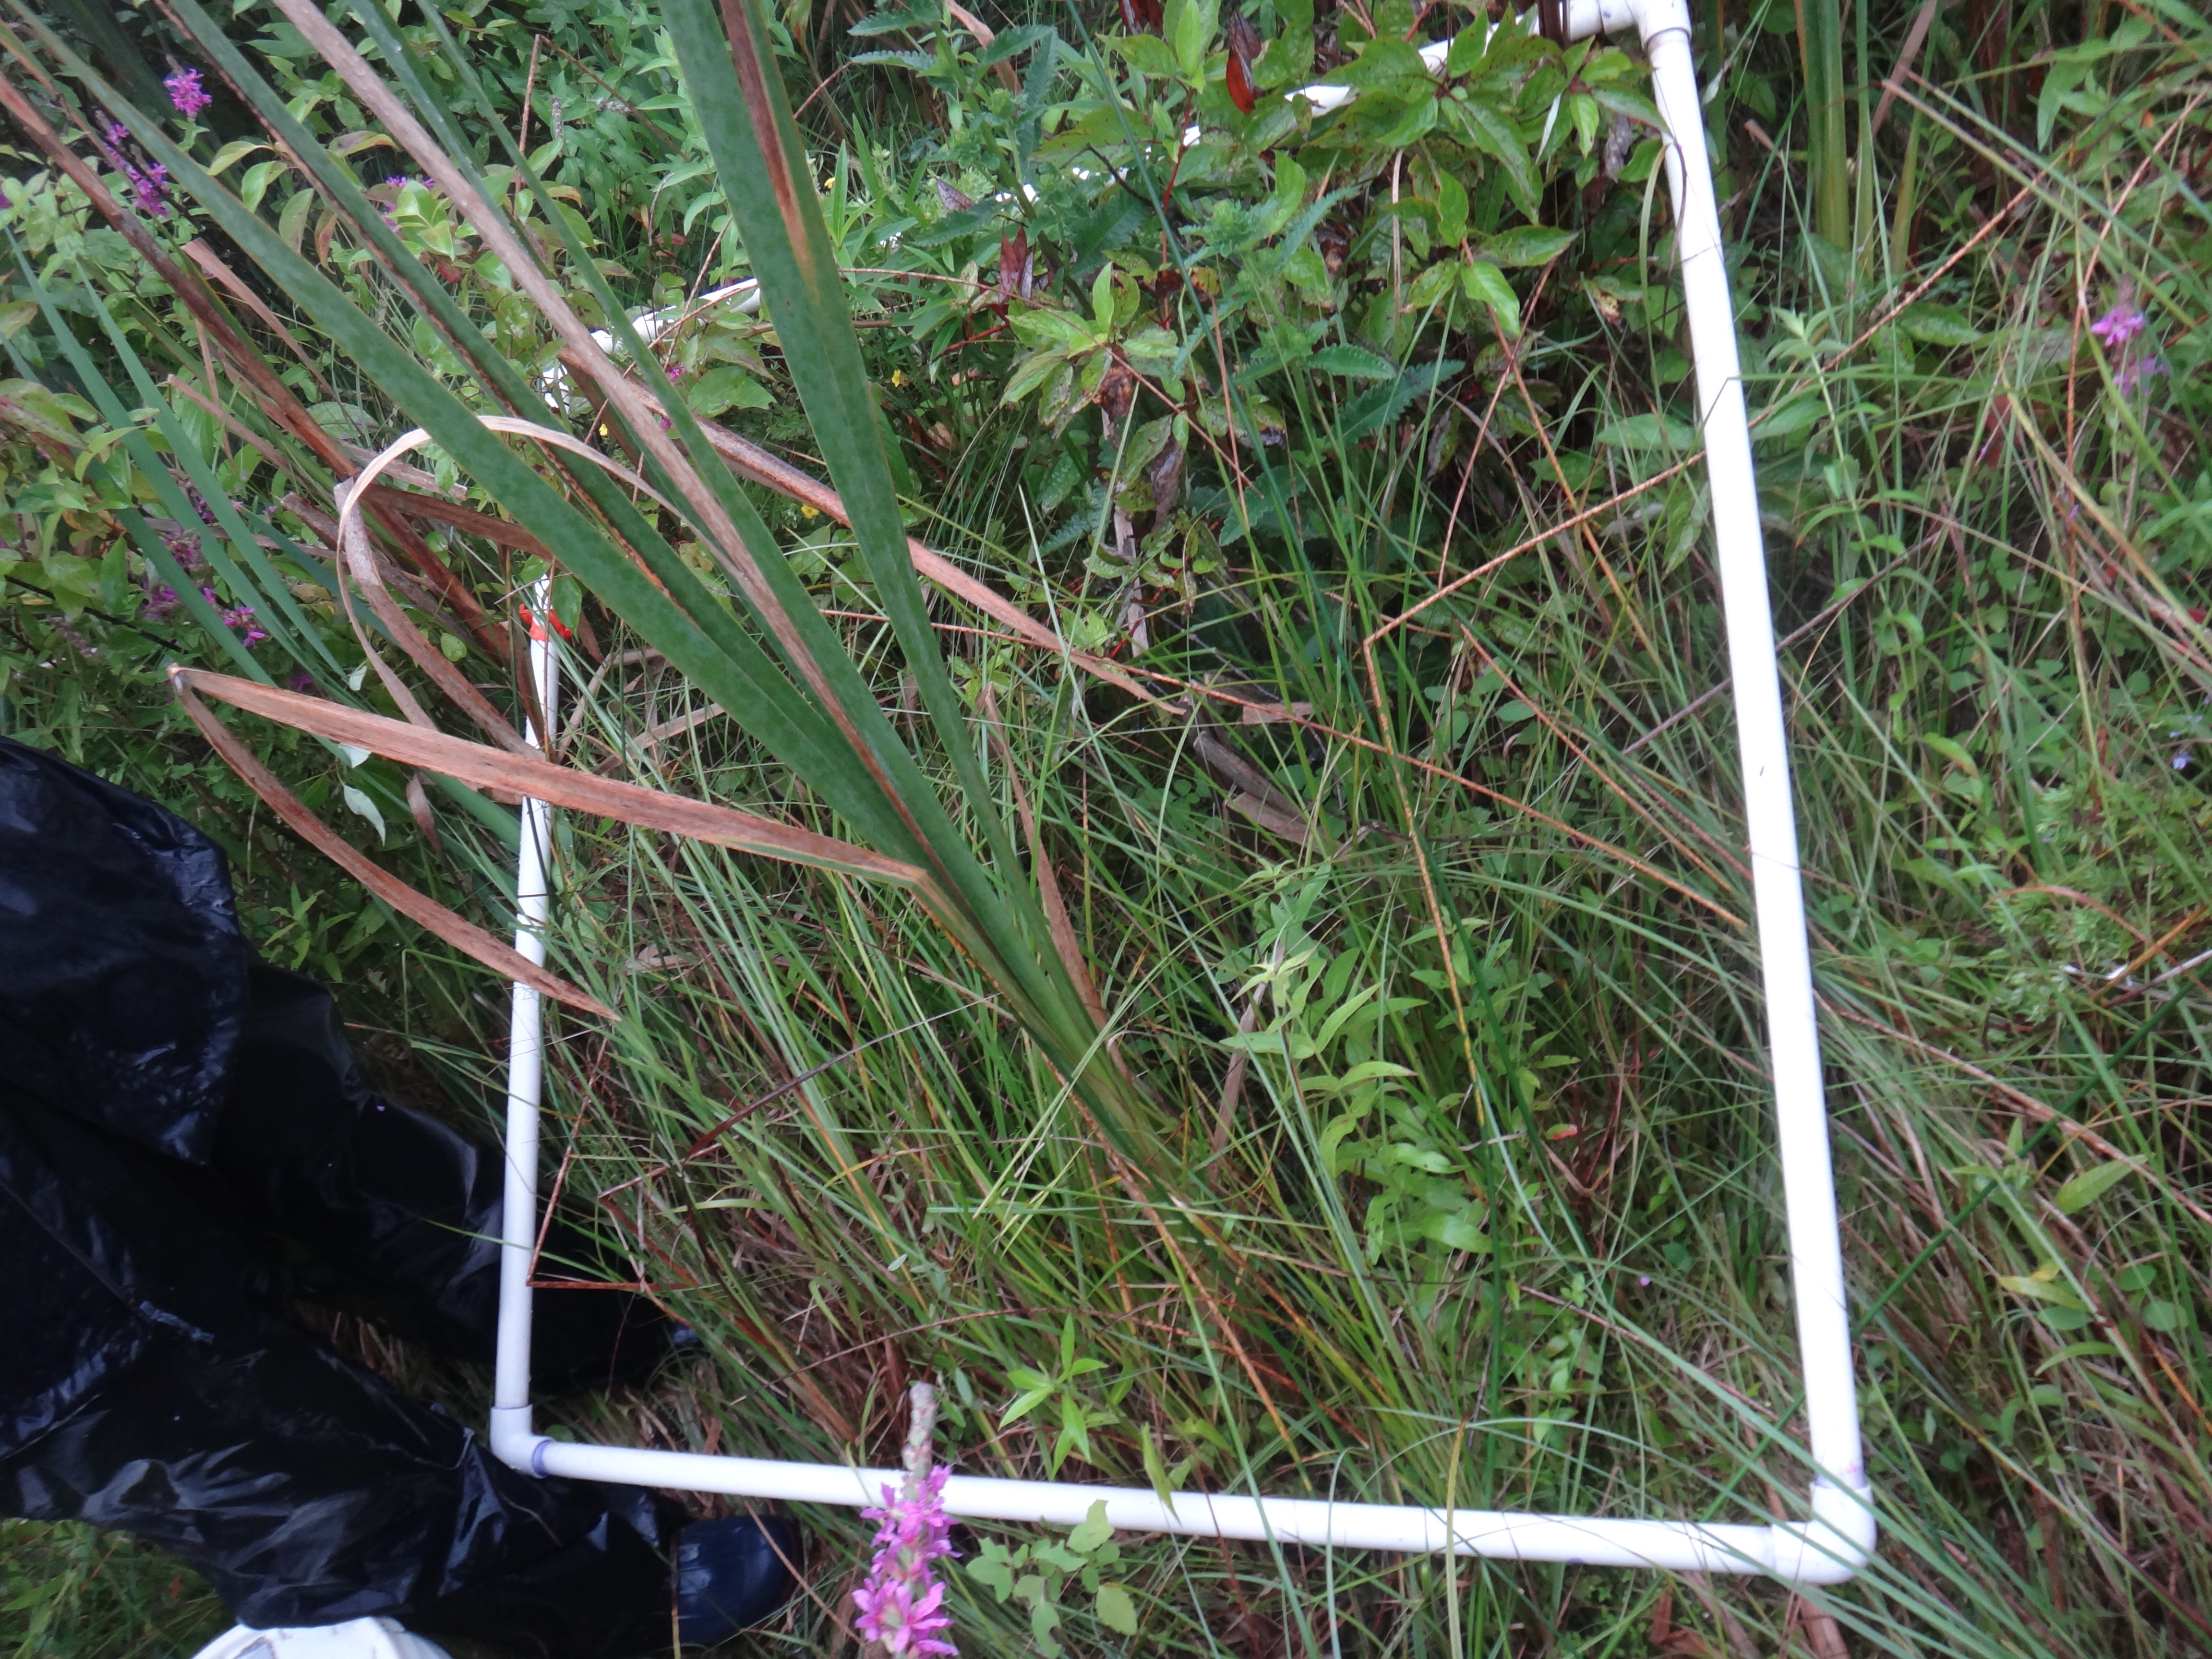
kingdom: Plantae
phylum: Tracheophyta
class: Liliopsida
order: Poales
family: Poaceae
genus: Muhlenbergia
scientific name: Muhlenbergia mexicana
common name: Mexican muhly
